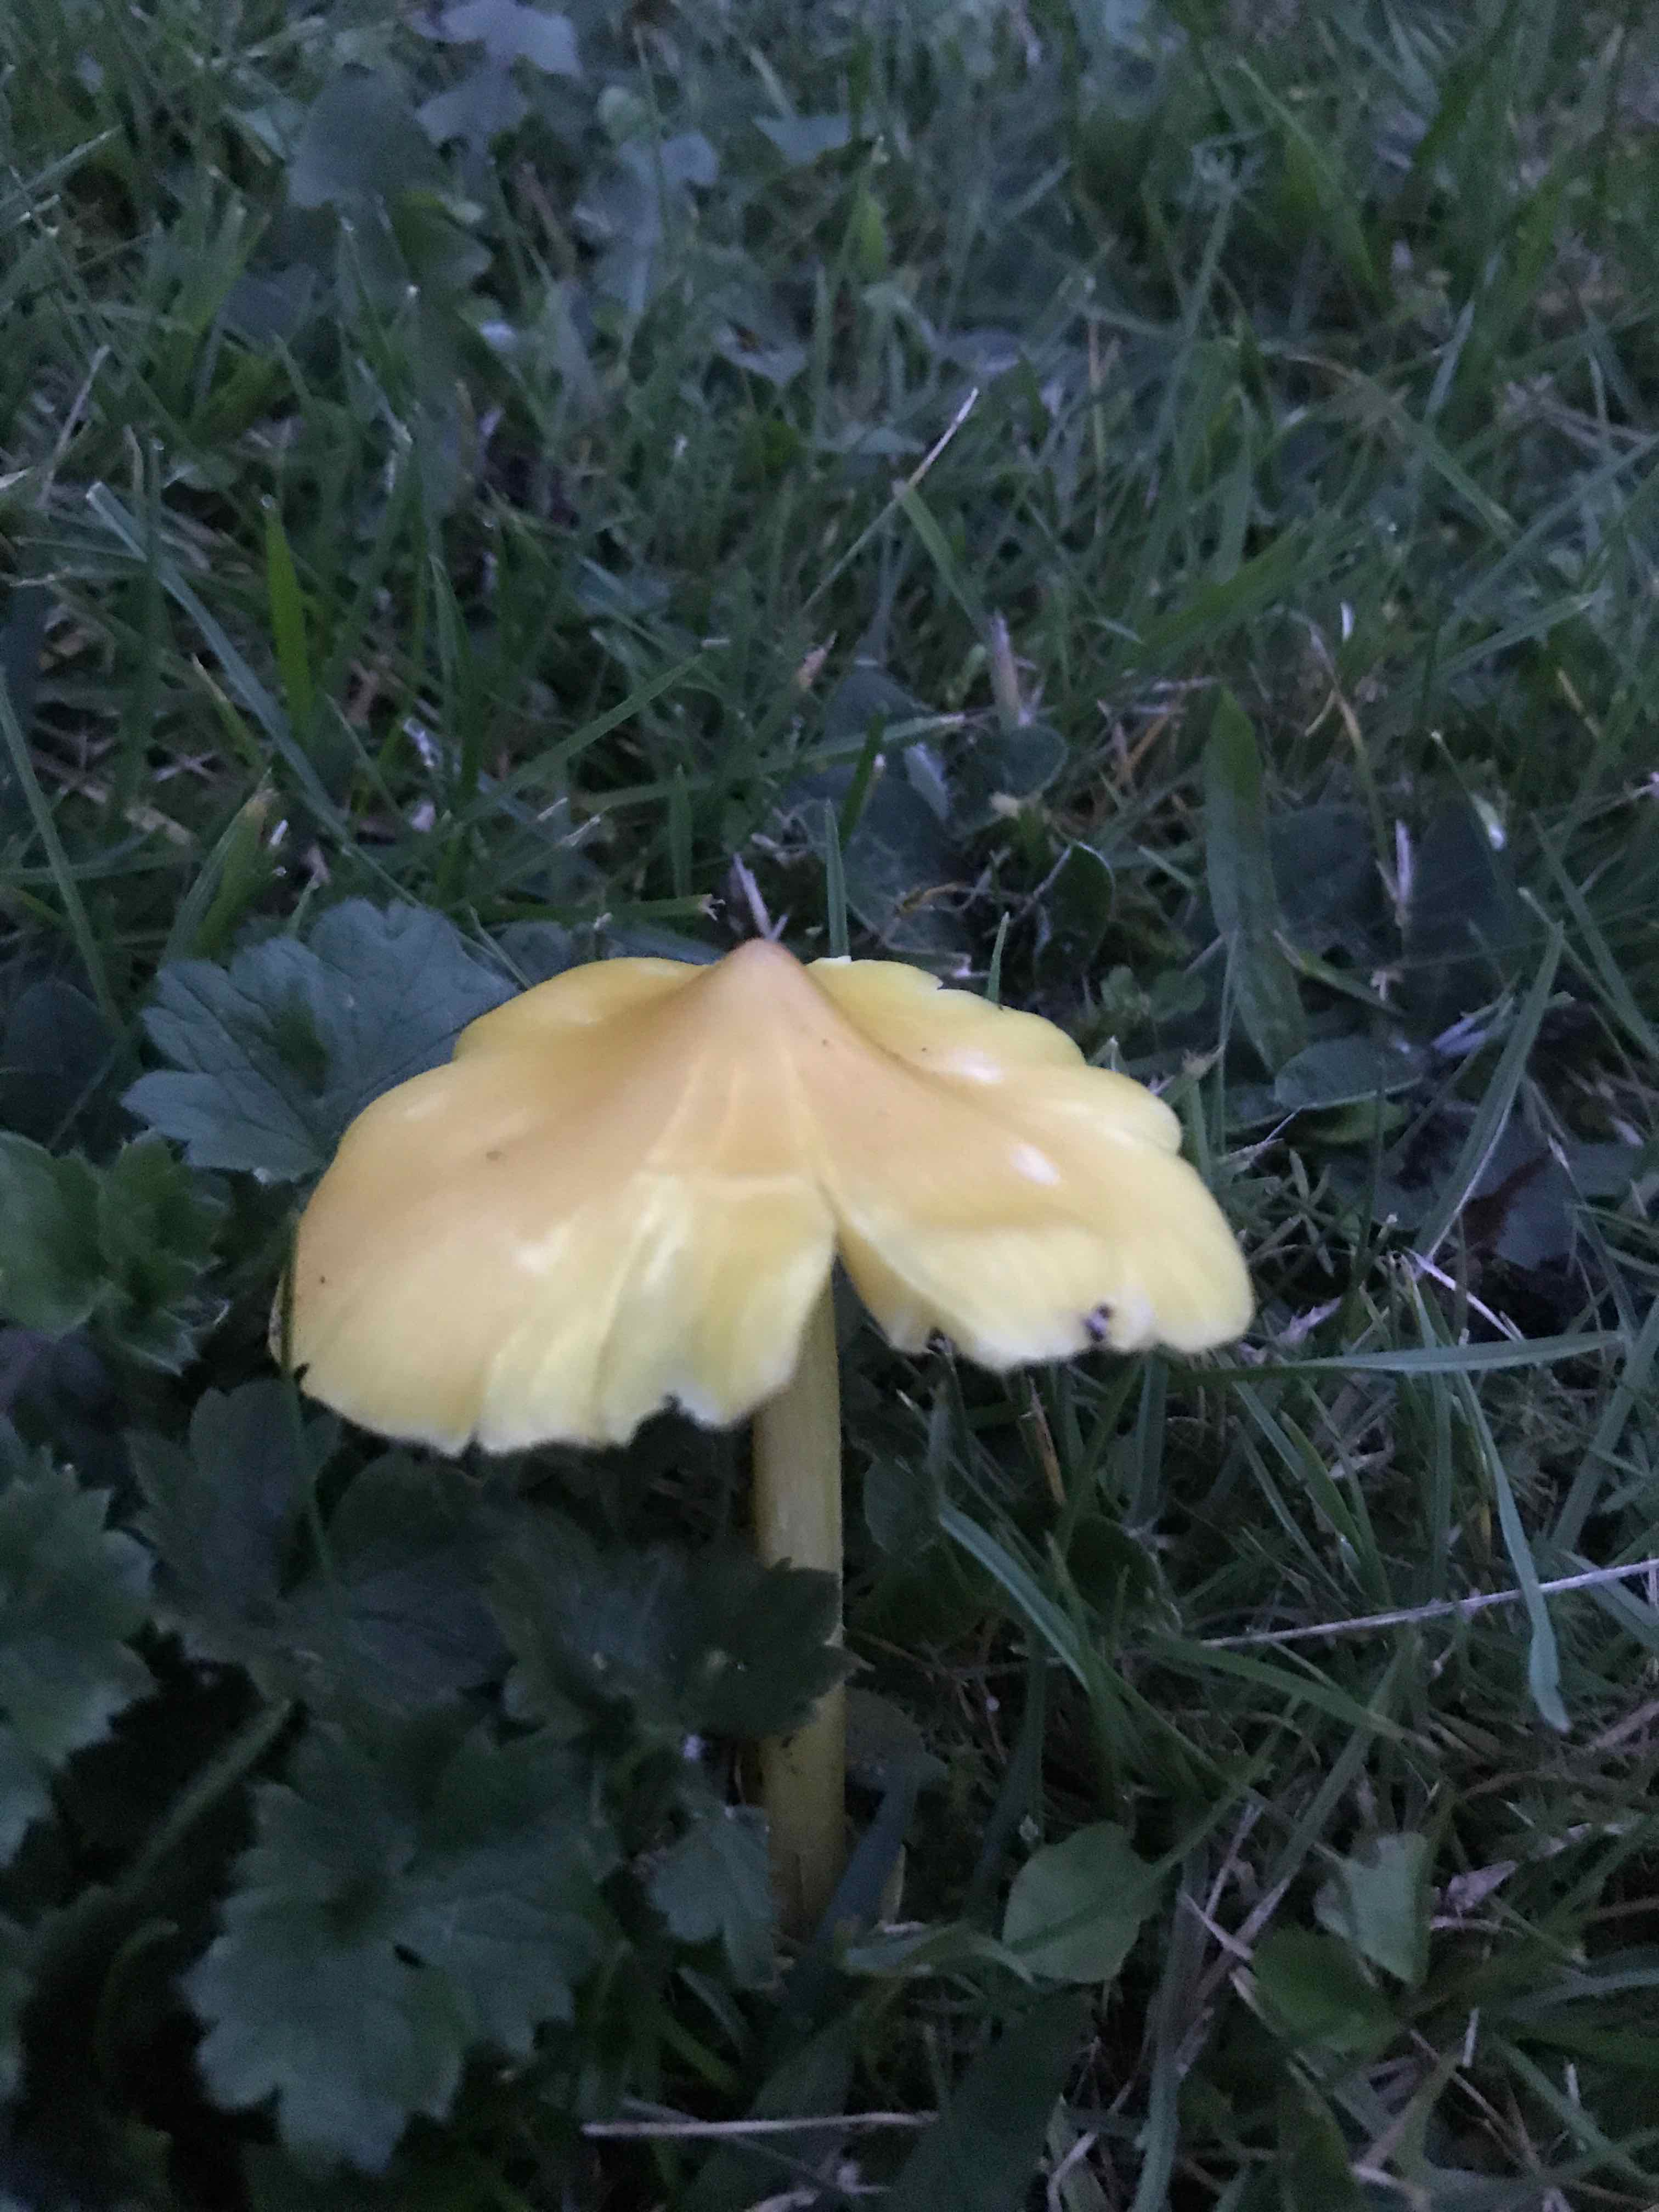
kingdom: Fungi
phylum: Basidiomycota
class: Agaricomycetes
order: Agaricales
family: Hygrophoraceae
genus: Hygrocybe
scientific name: Hygrocybe
